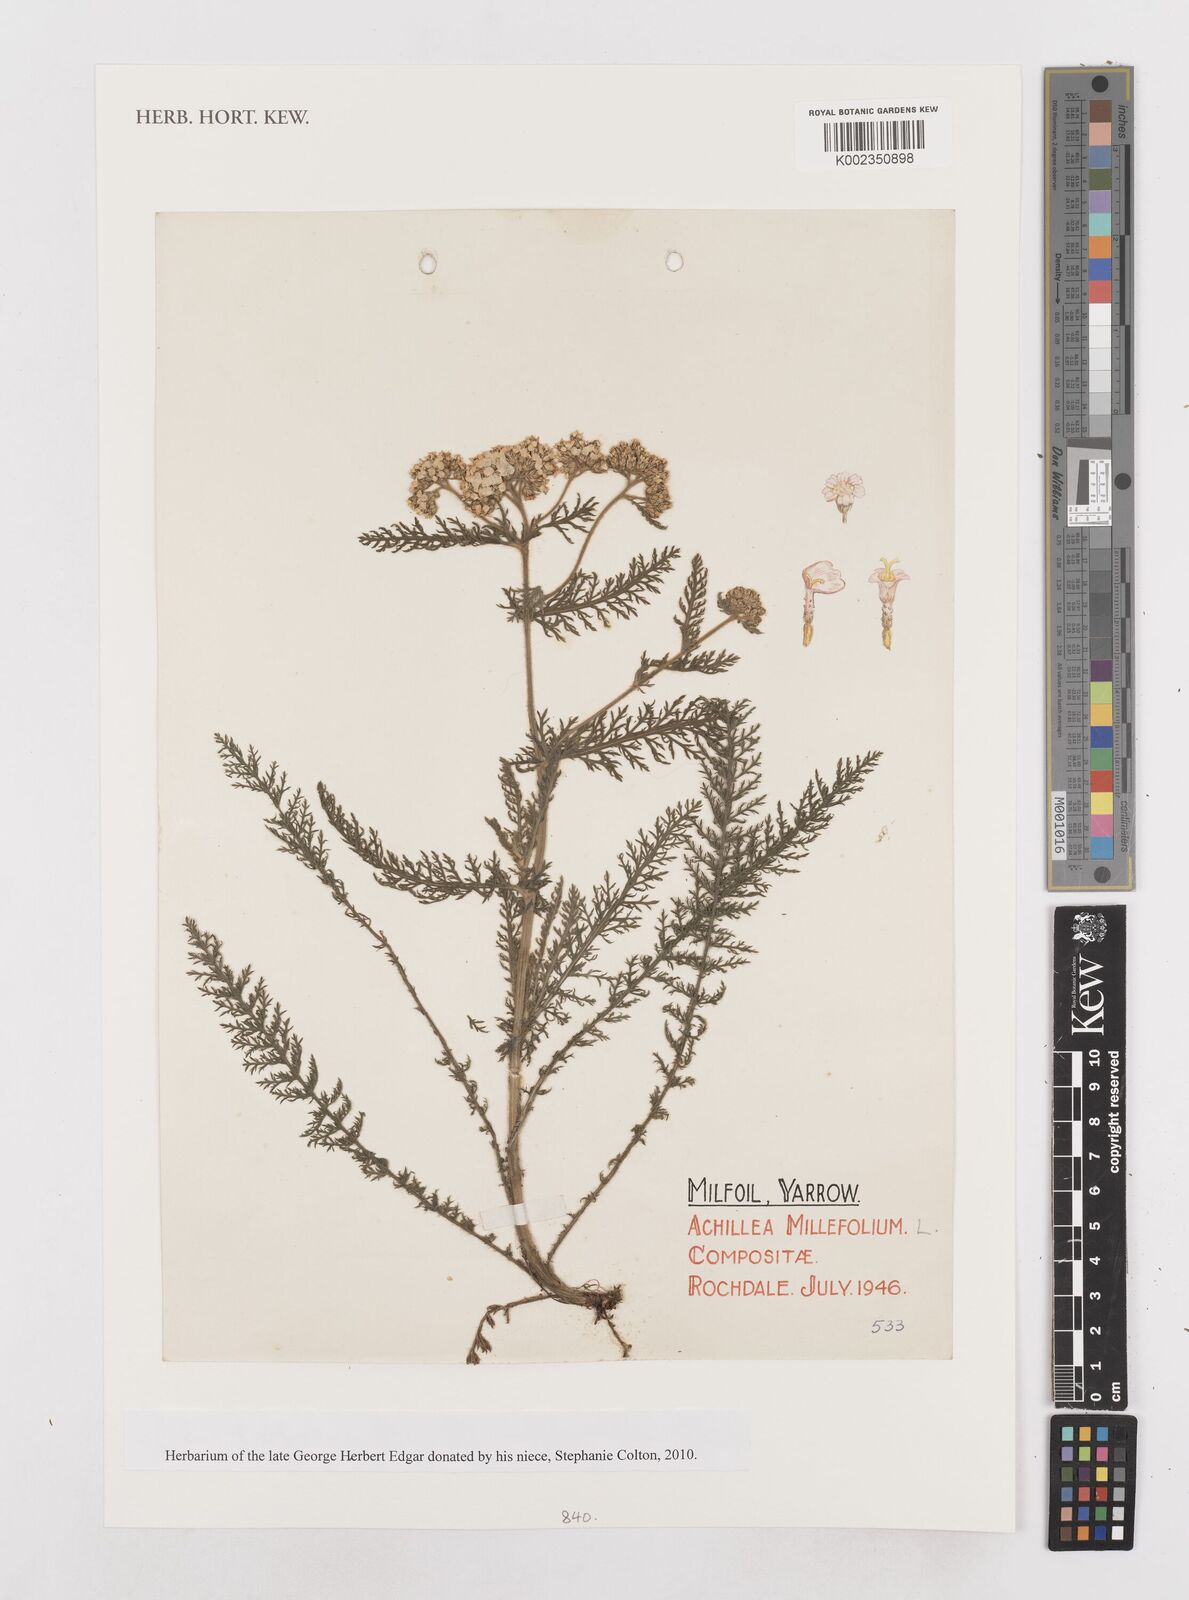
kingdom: Plantae
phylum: Tracheophyta
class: Magnoliopsida
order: Asterales
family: Asteraceae
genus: Achillea
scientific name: Achillea millefolium
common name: Yarrow
